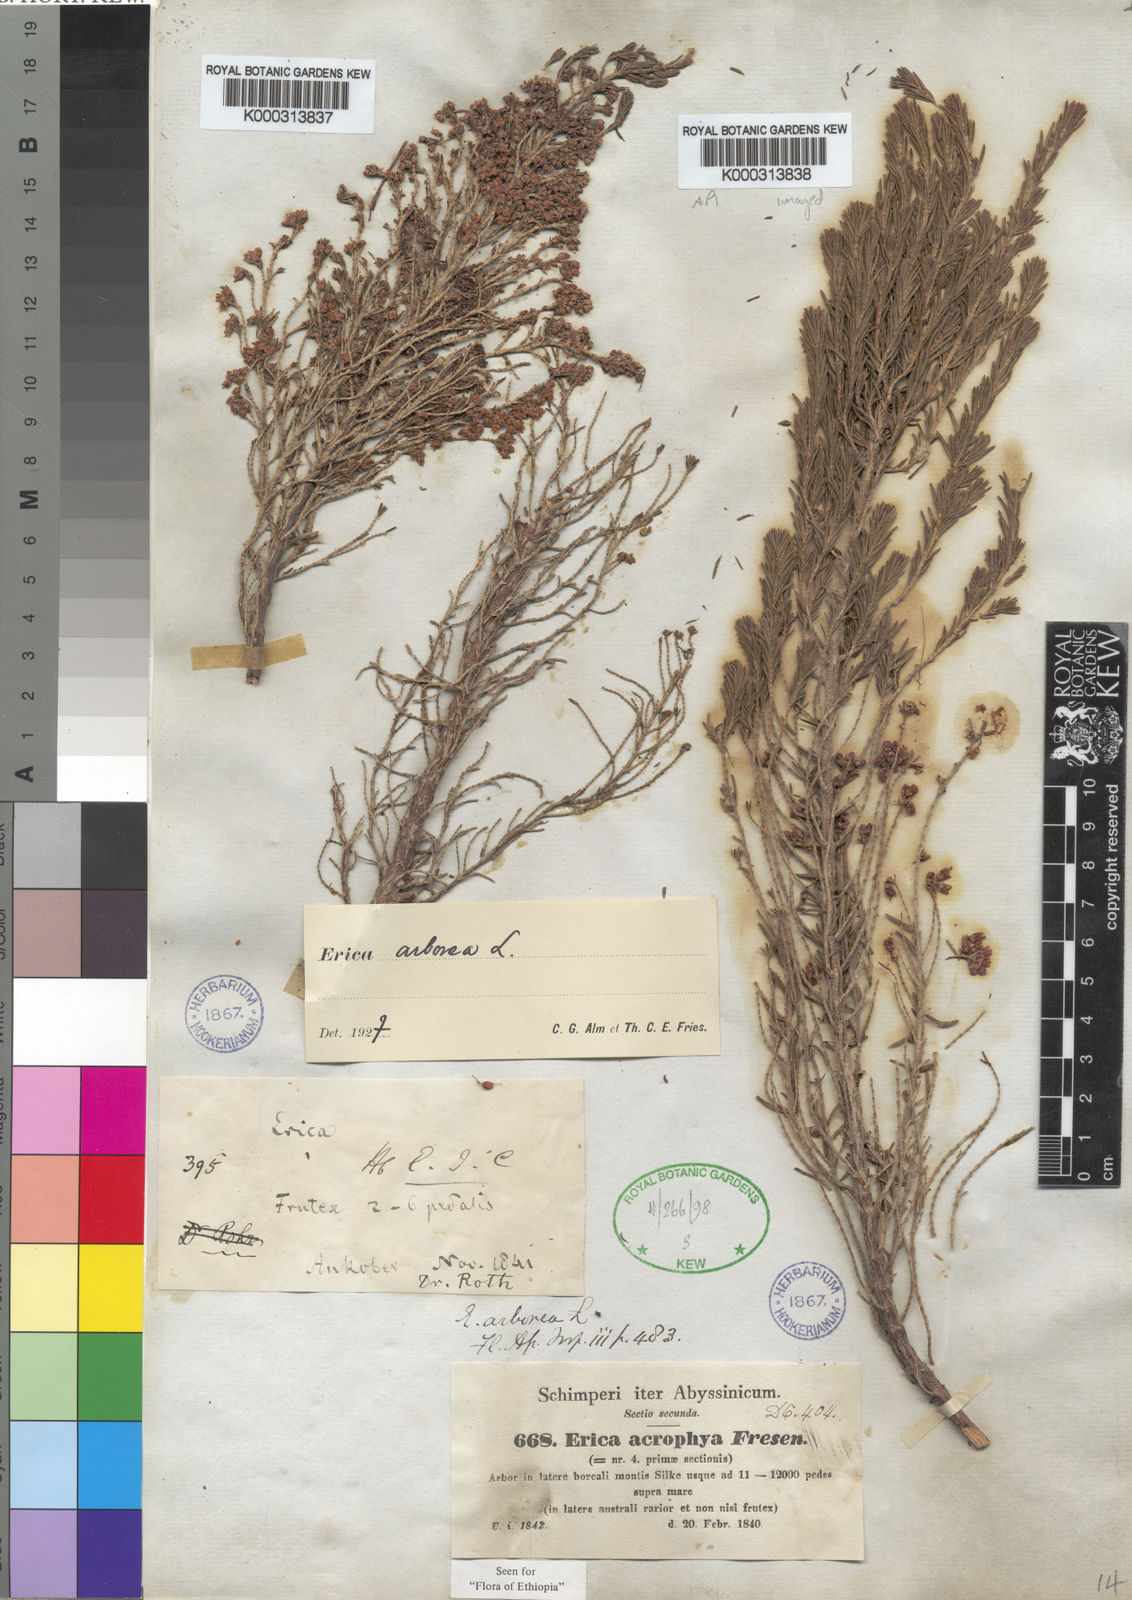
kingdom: Plantae
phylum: Tracheophyta
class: Magnoliopsida
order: Ericales
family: Ericaceae
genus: Erica
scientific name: Erica arborea
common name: Tree heath
